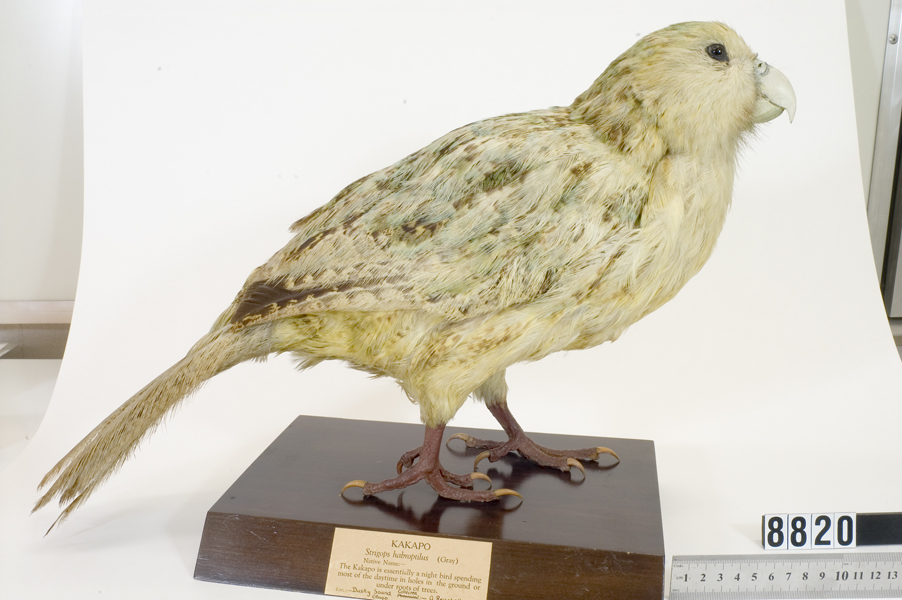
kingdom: Animalia
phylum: Chordata
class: Aves
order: Psittaciformes
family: Psittacidae
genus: Strigops
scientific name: Strigops habroptila
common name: Kakapo
